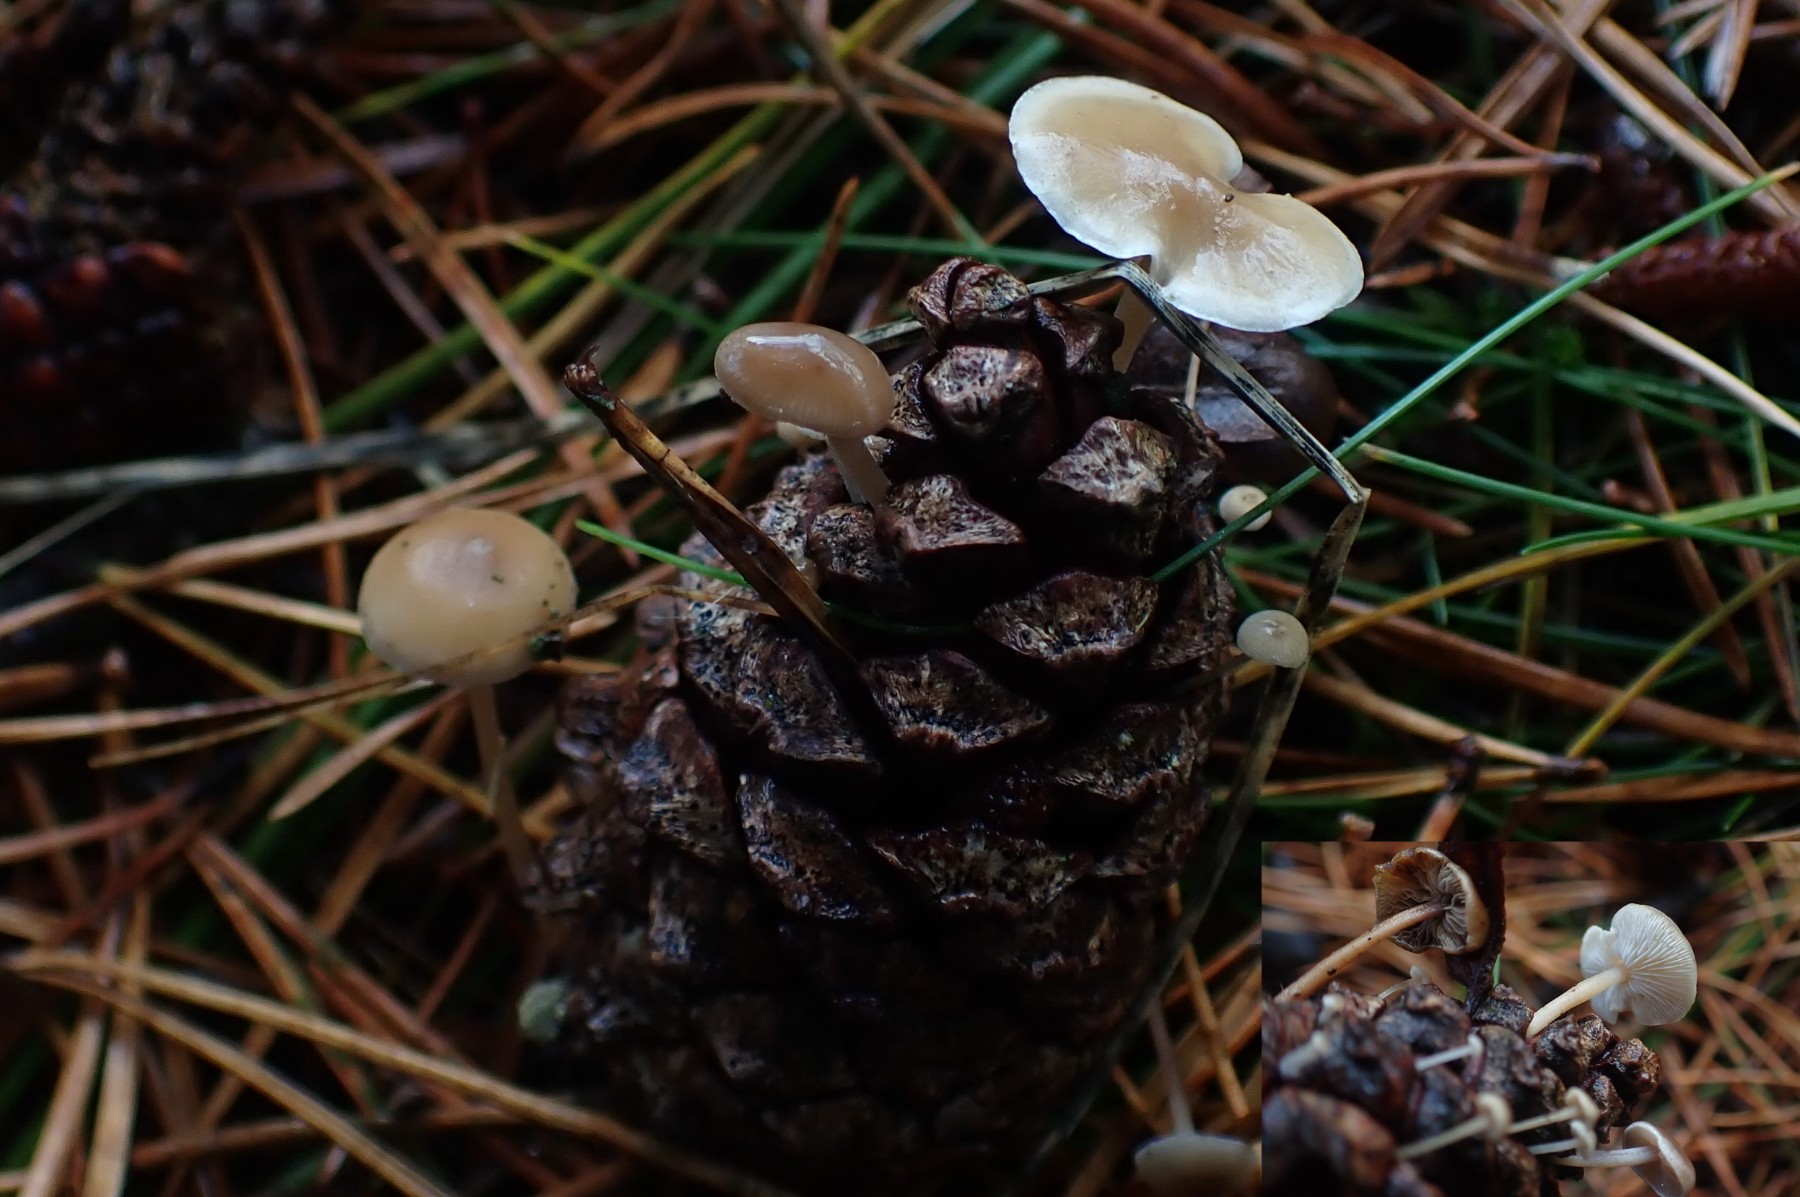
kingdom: Fungi
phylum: Basidiomycota
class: Agaricomycetes
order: Agaricales
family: Marasmiaceae
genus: Baeospora
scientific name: Baeospora myosura
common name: koglebruskhat
